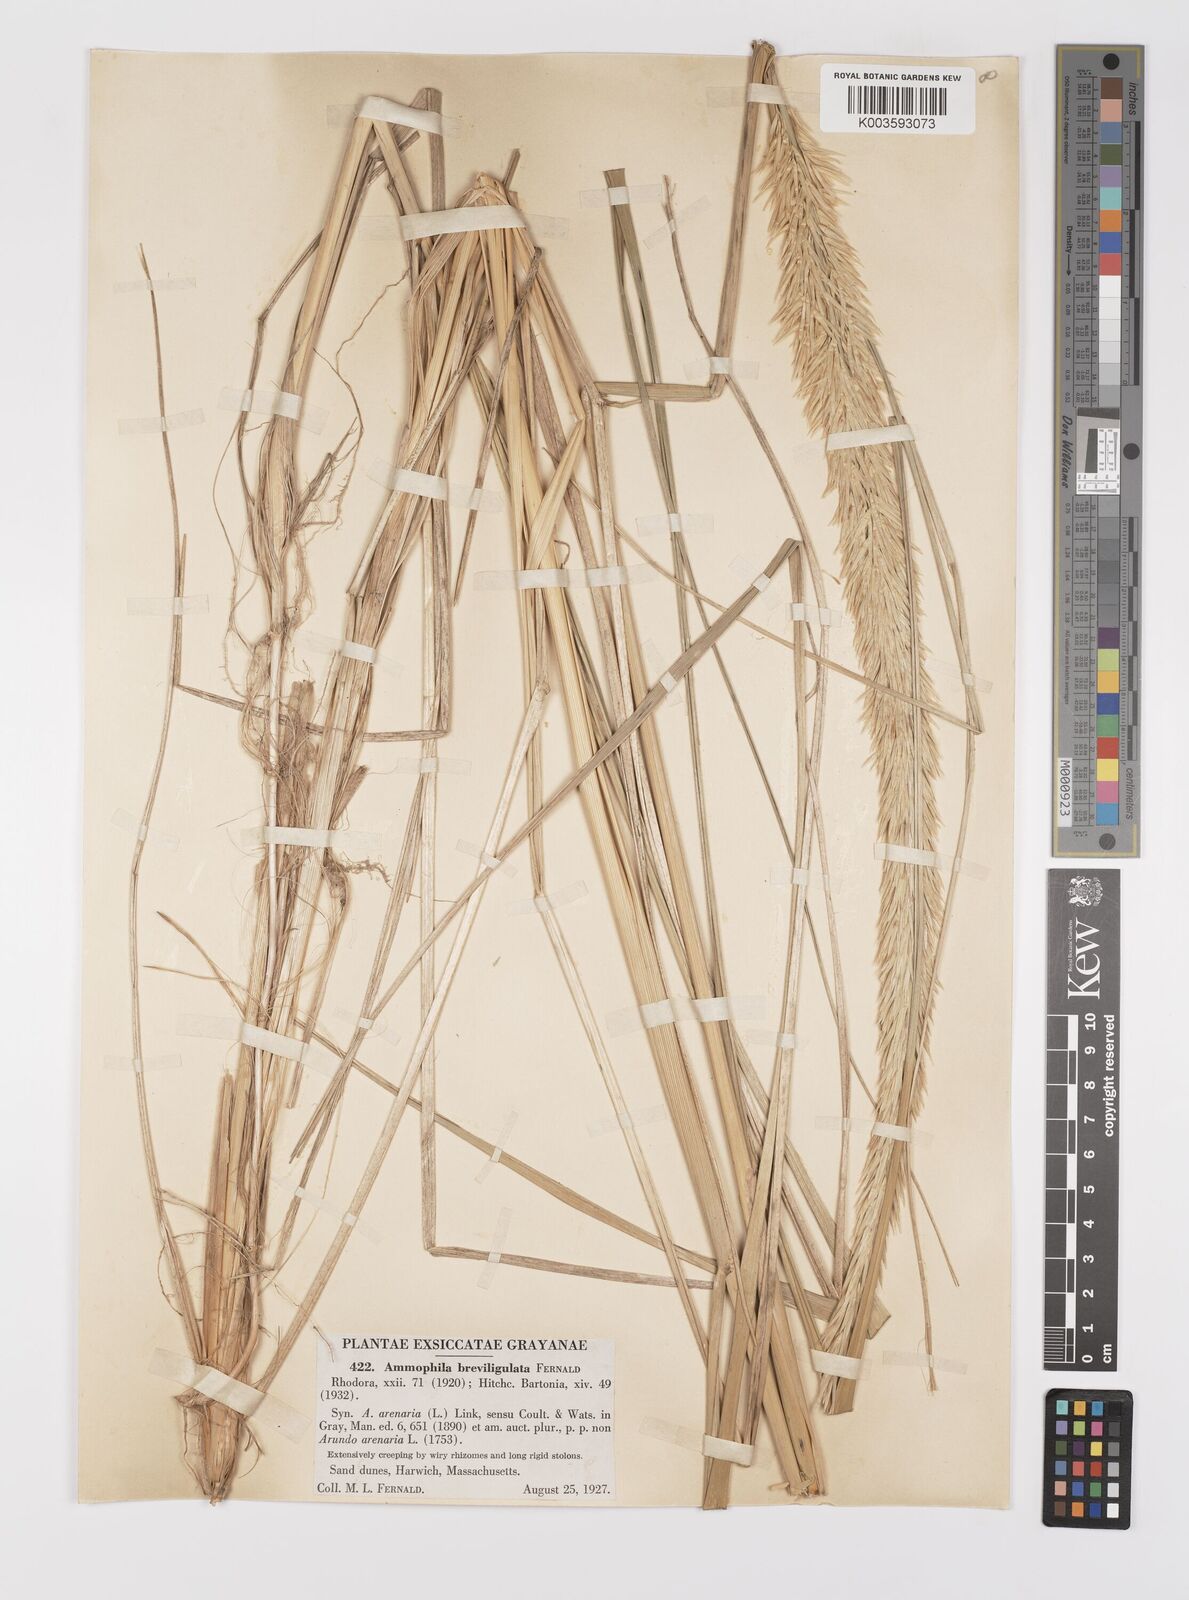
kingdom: Plantae
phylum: Tracheophyta
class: Liliopsida
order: Poales
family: Poaceae
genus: Calamagrostis
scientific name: Calamagrostis breviligulata
